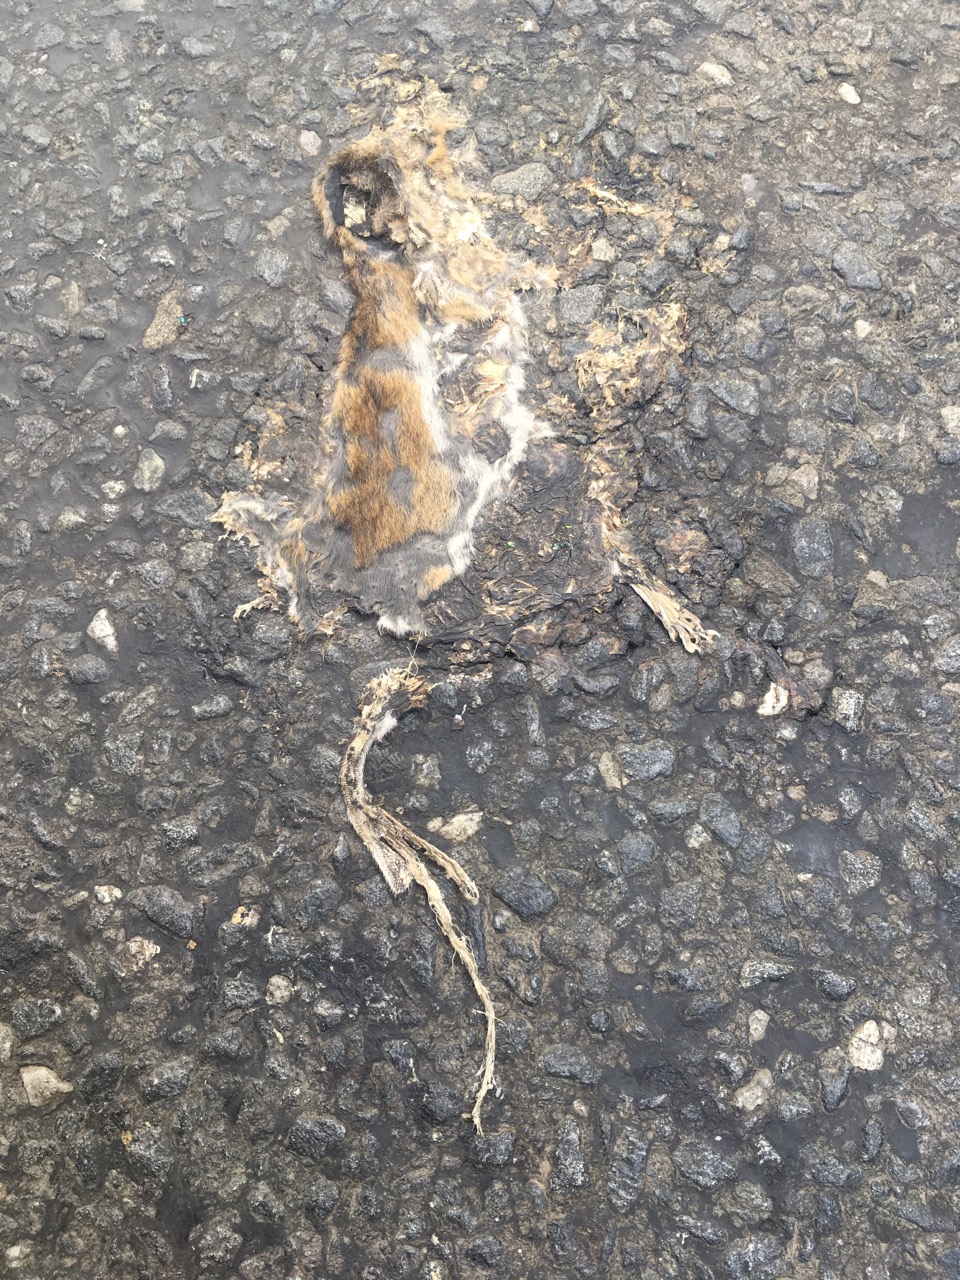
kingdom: Animalia
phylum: Chordata
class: Mammalia
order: Rodentia
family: Muridae
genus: Apodemus
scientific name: Apodemus
